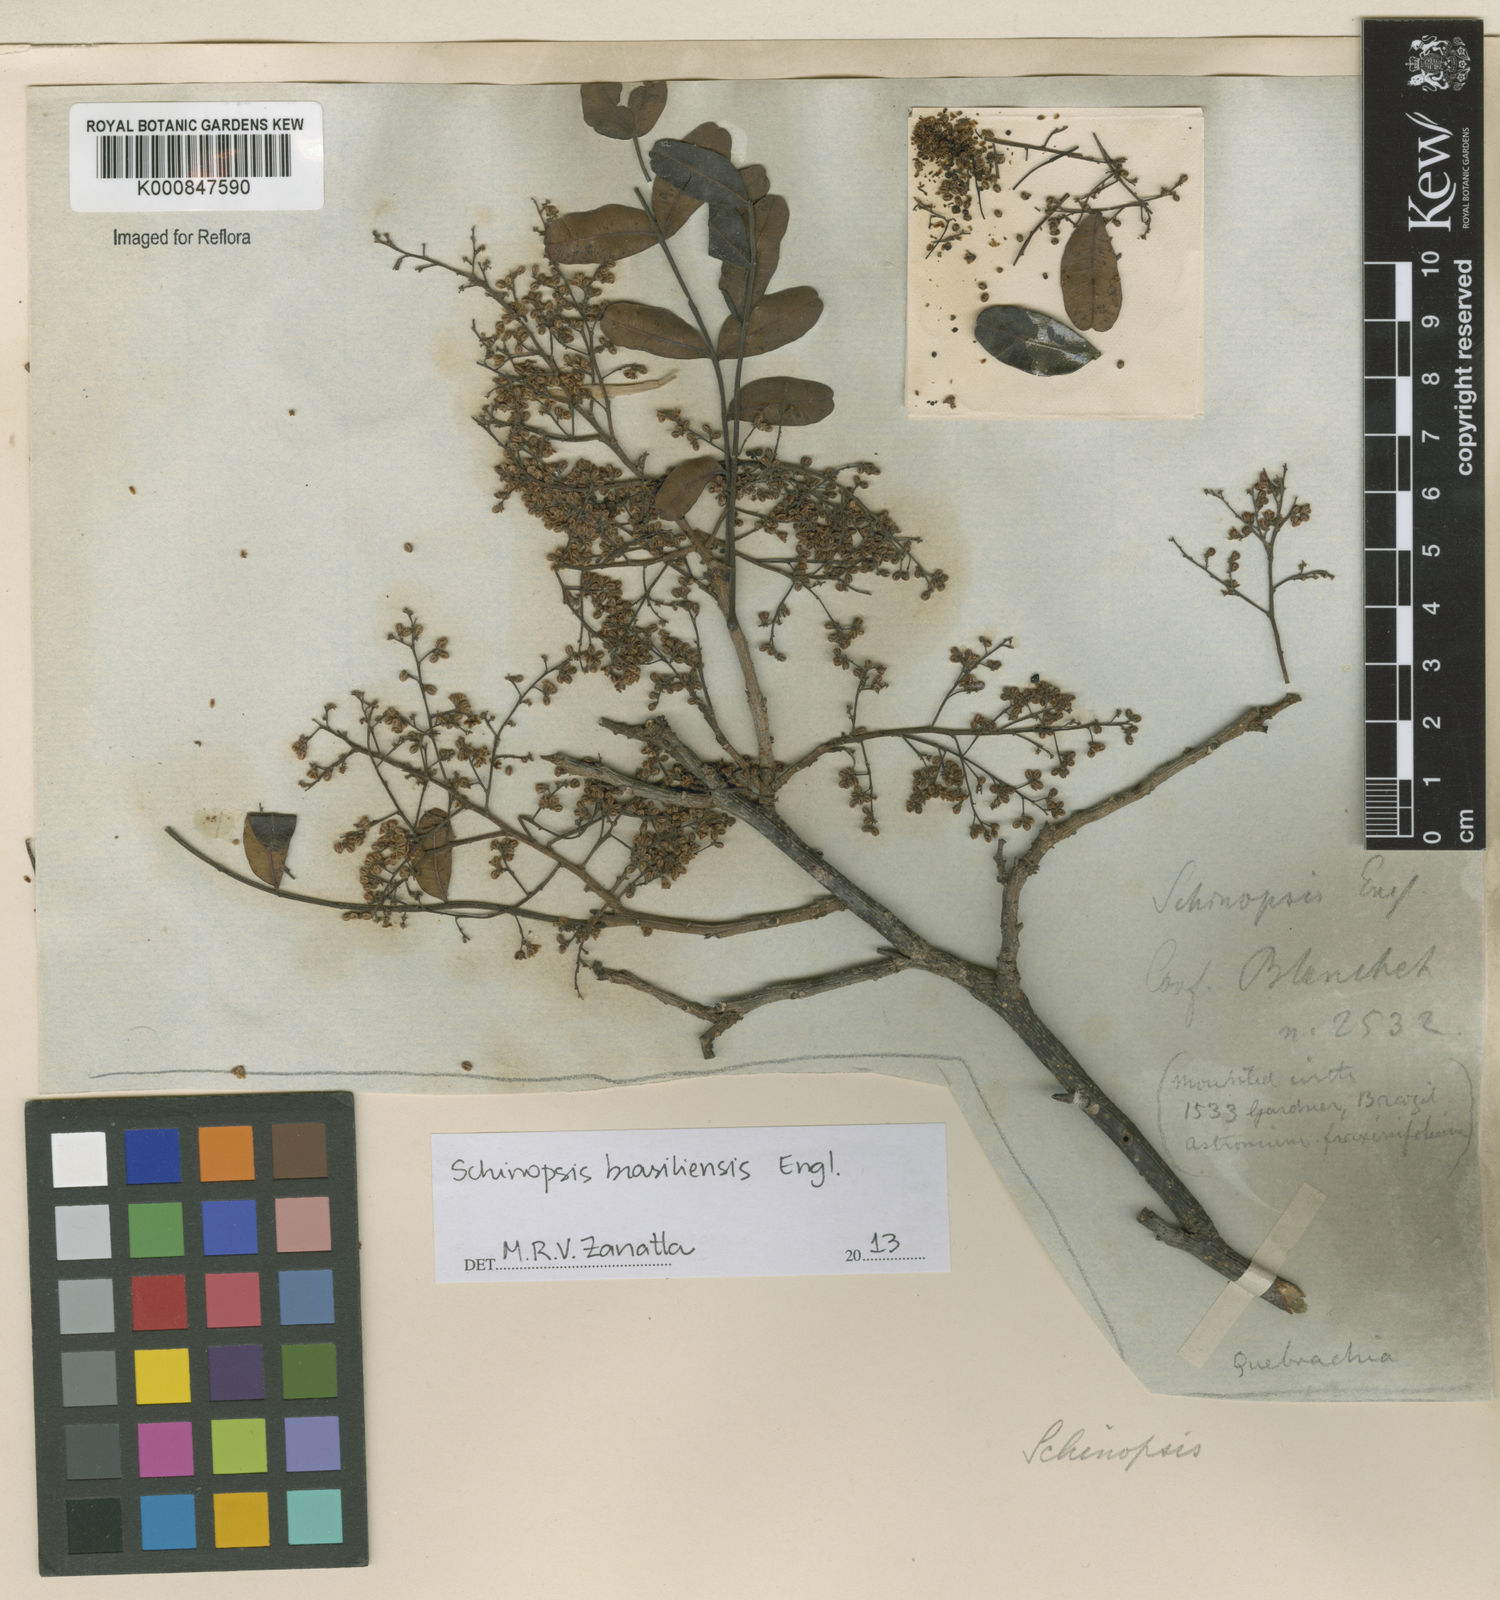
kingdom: Plantae
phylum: Tracheophyta
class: Magnoliopsida
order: Sapindales
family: Anacardiaceae
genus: Schinopsis
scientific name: Schinopsis brasiliensis
